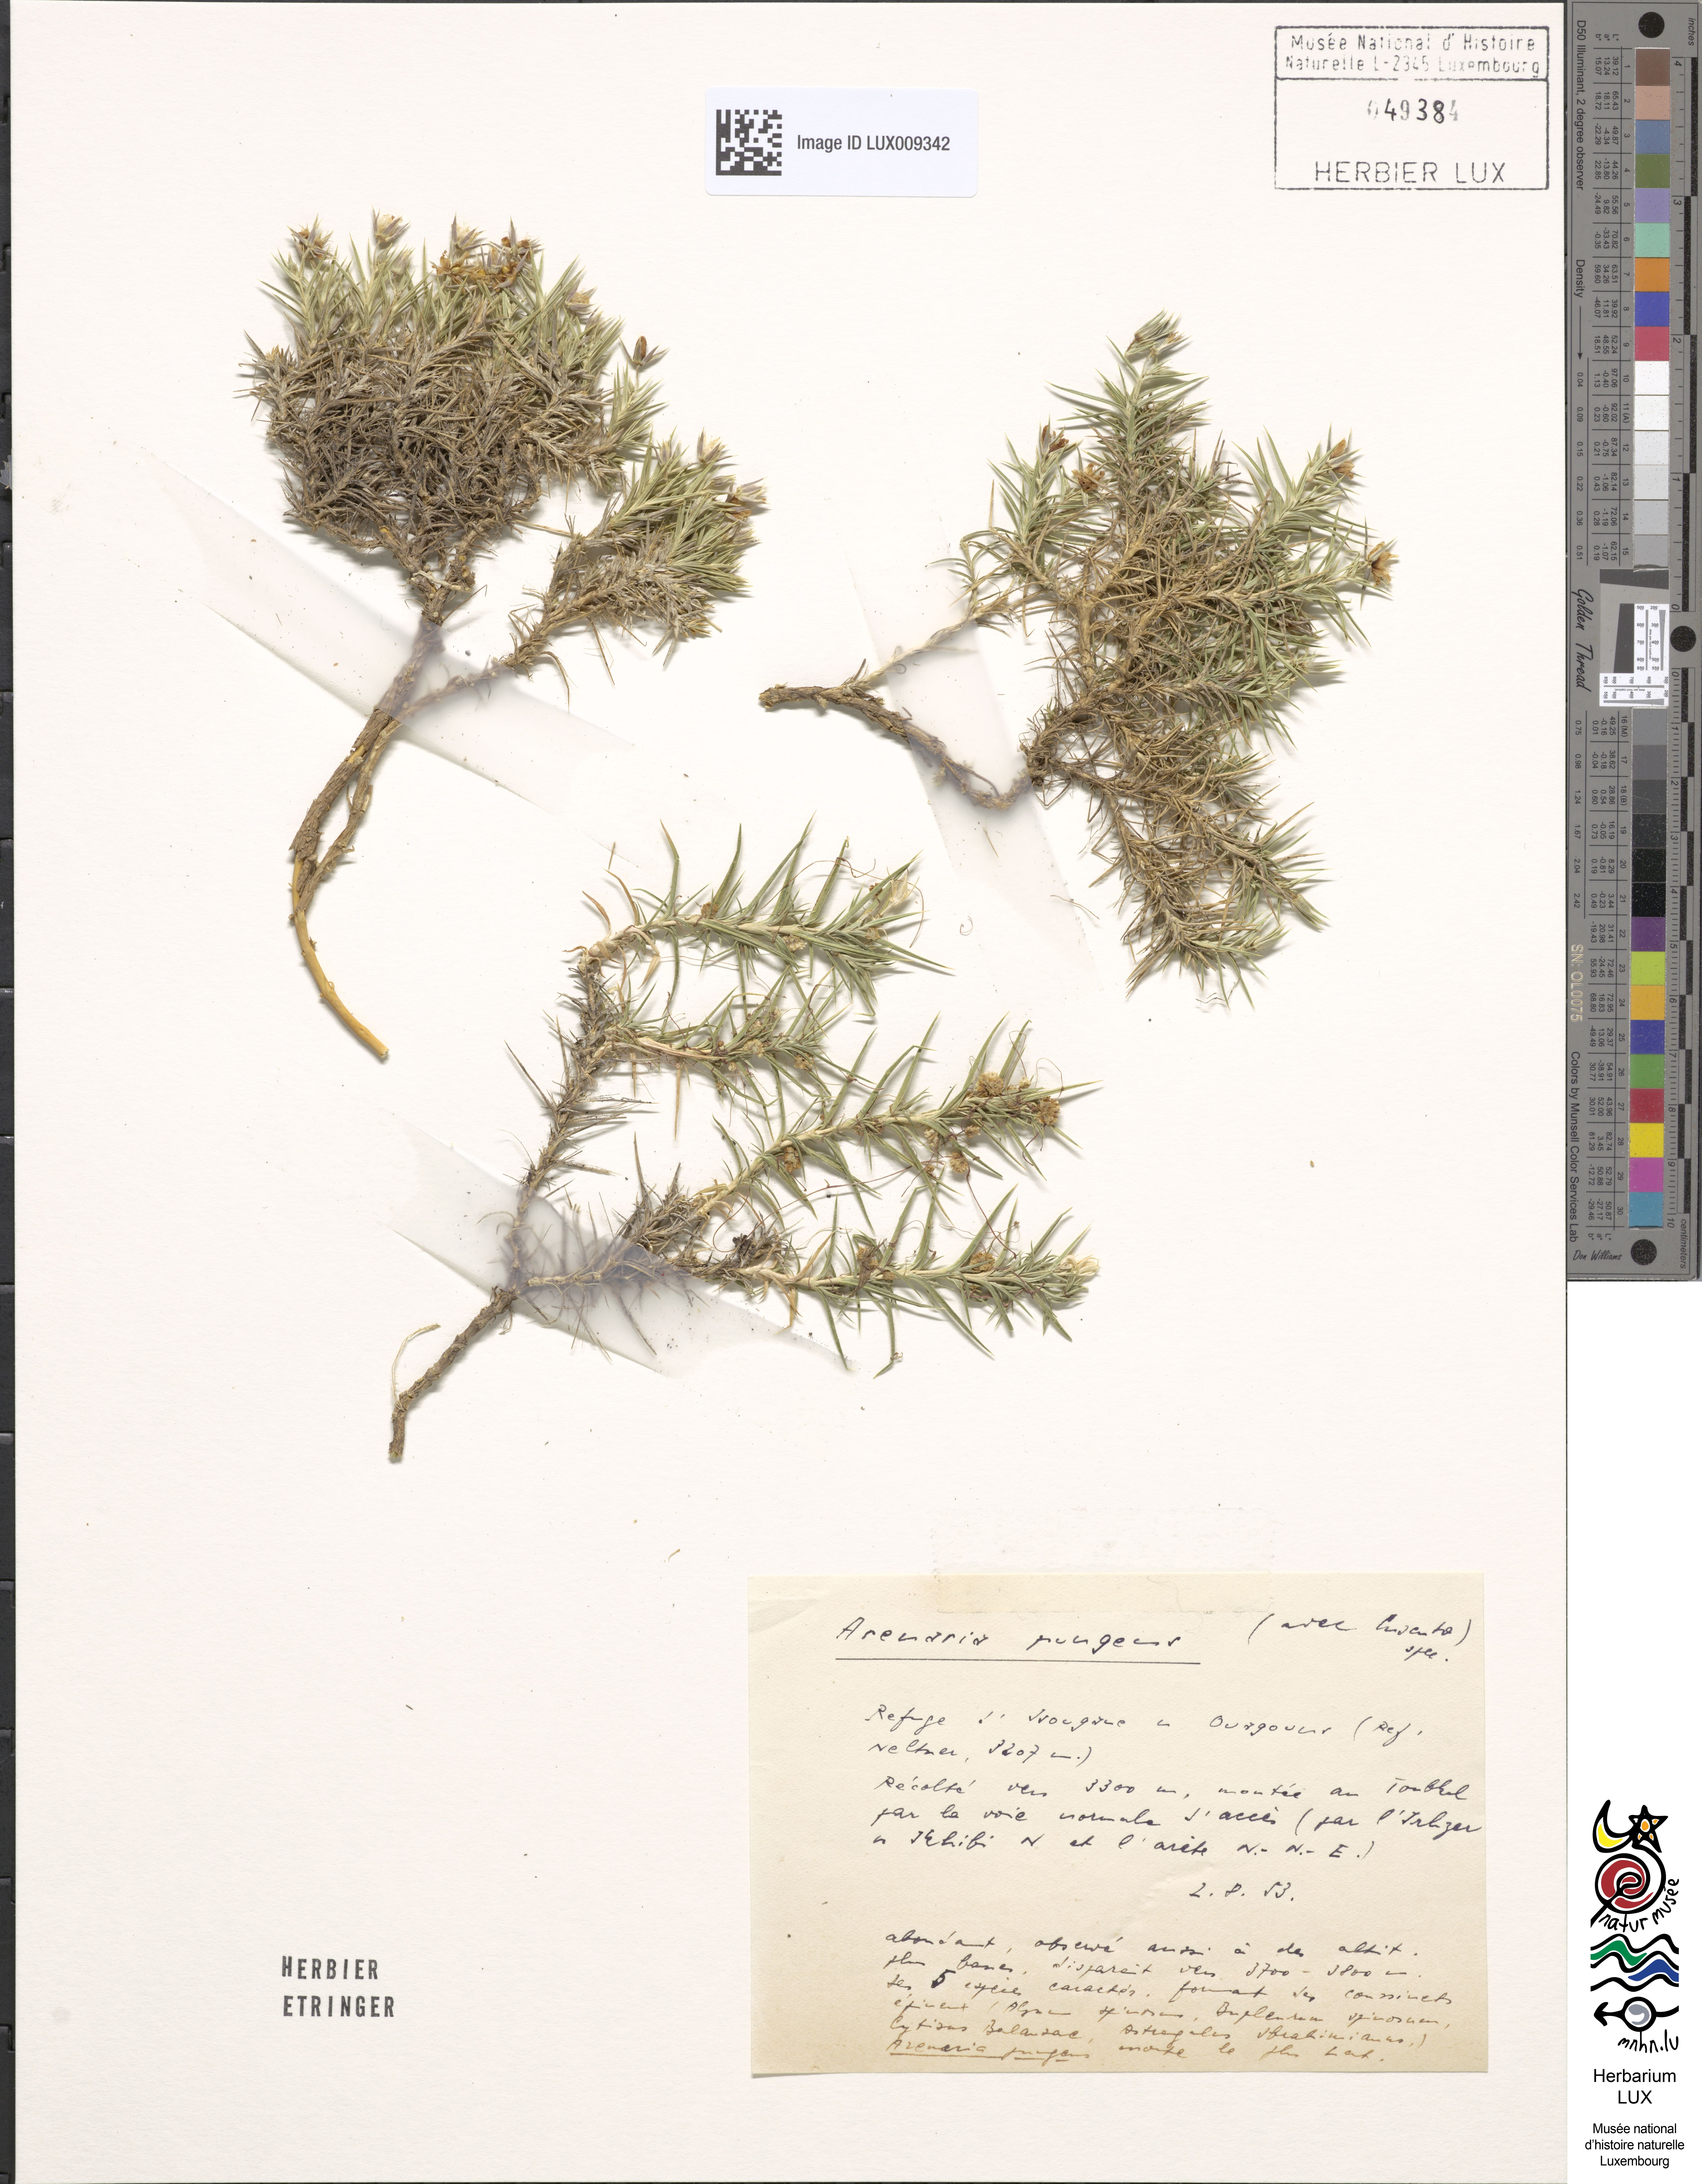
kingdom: Animalia
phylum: Chordata
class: Aves
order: Charadriiformes
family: Scolopacidae
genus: Arenaria
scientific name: Arenaria
